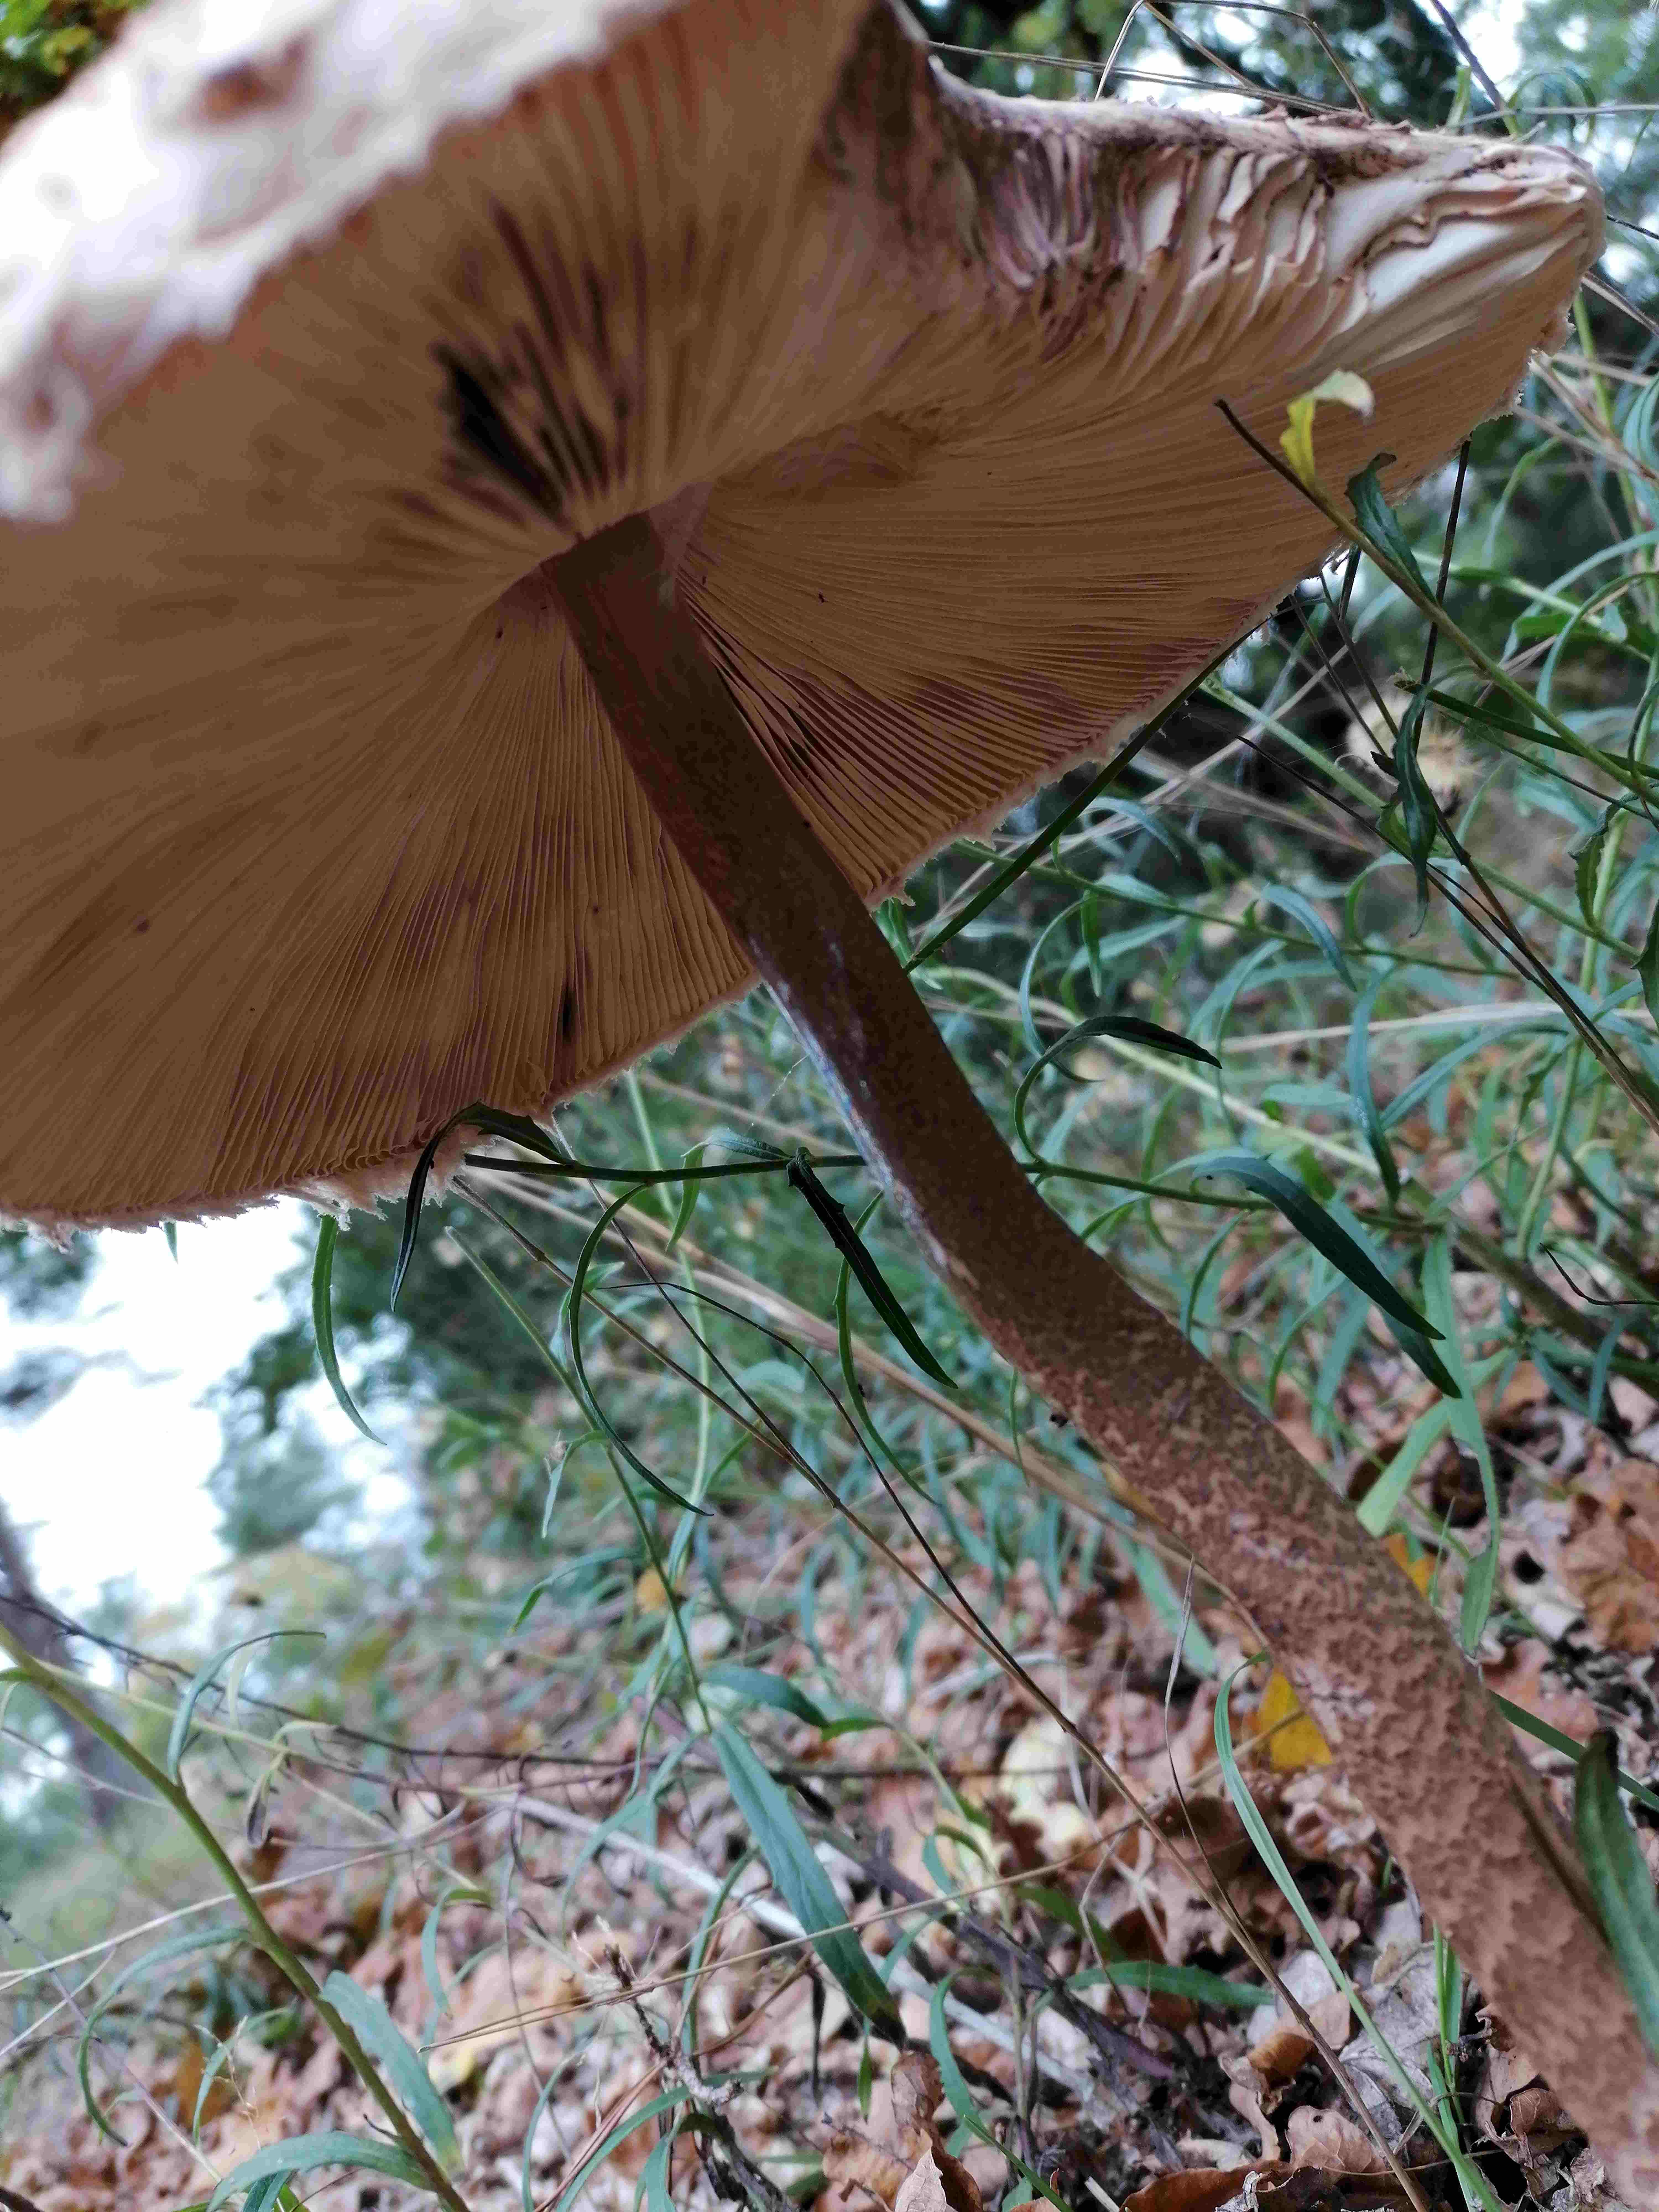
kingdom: Fungi
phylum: Basidiomycota
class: Agaricomycetes
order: Agaricales
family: Agaricaceae
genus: Macrolepiota
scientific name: Macrolepiota procera
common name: stor kæmpeparasolhat
